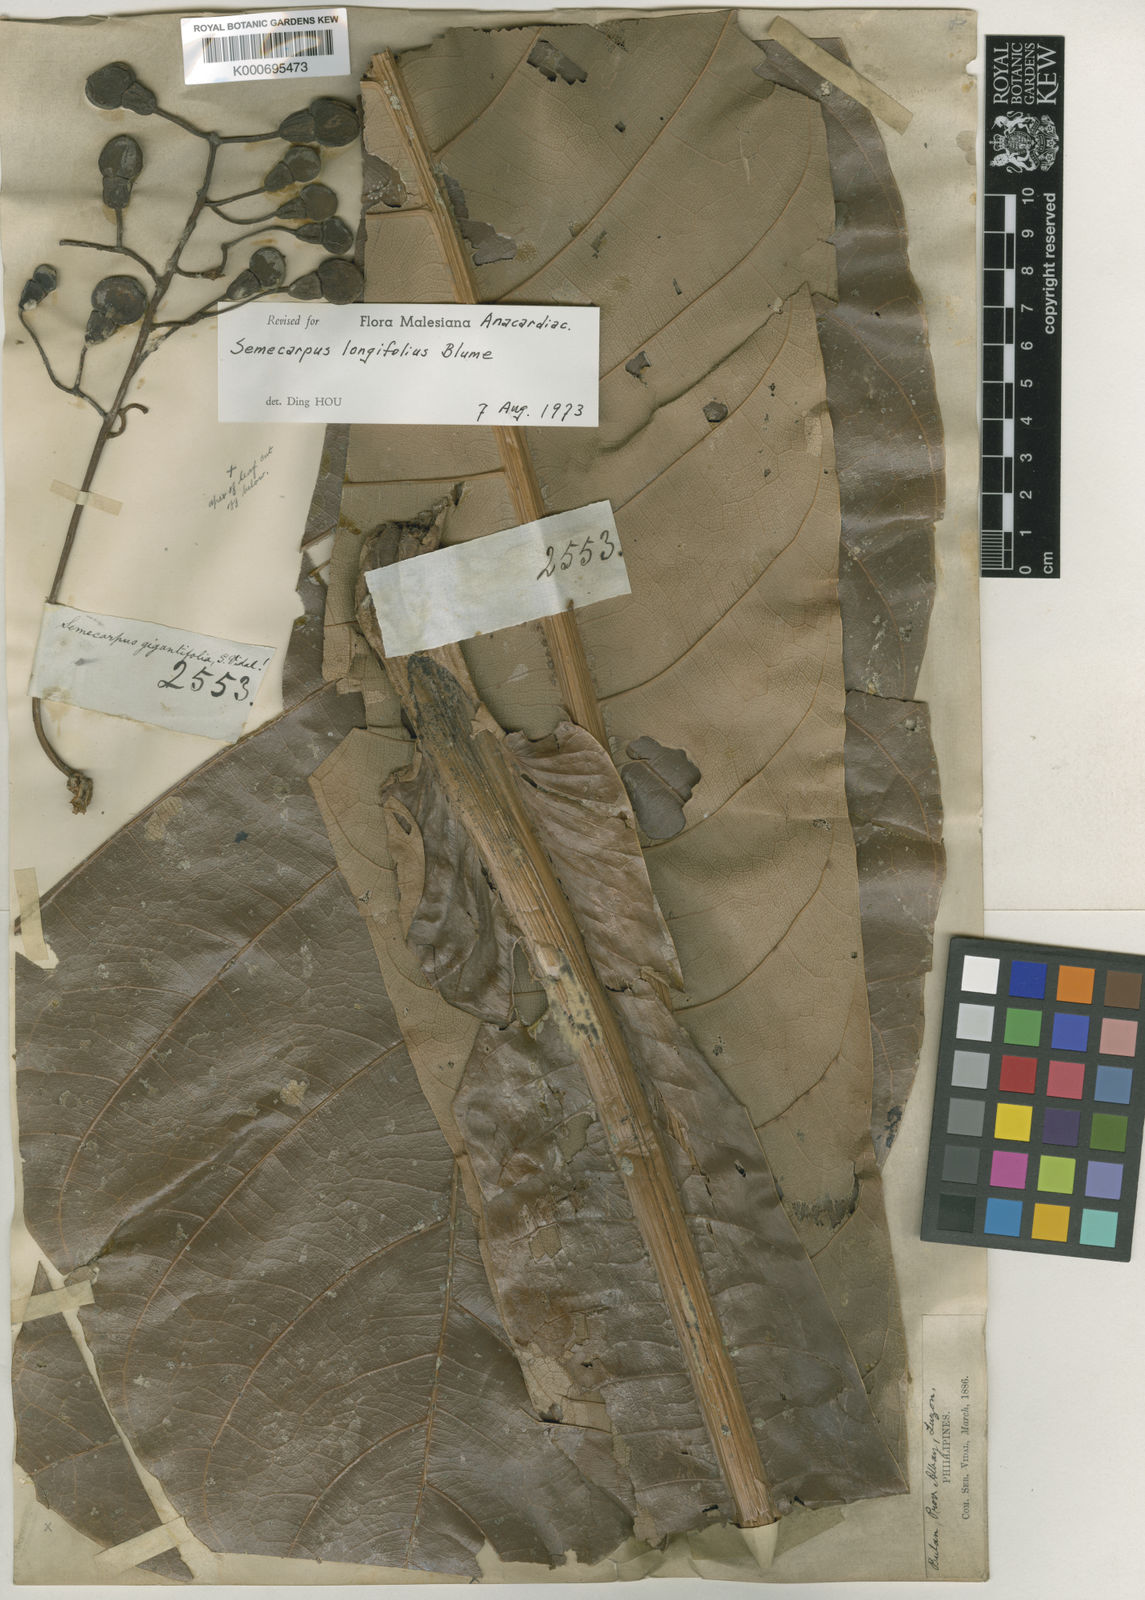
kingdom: Plantae
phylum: Tracheophyta
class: Magnoliopsida
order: Sapindales
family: Anacardiaceae
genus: Semecarpus
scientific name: Semecarpus longifolius
